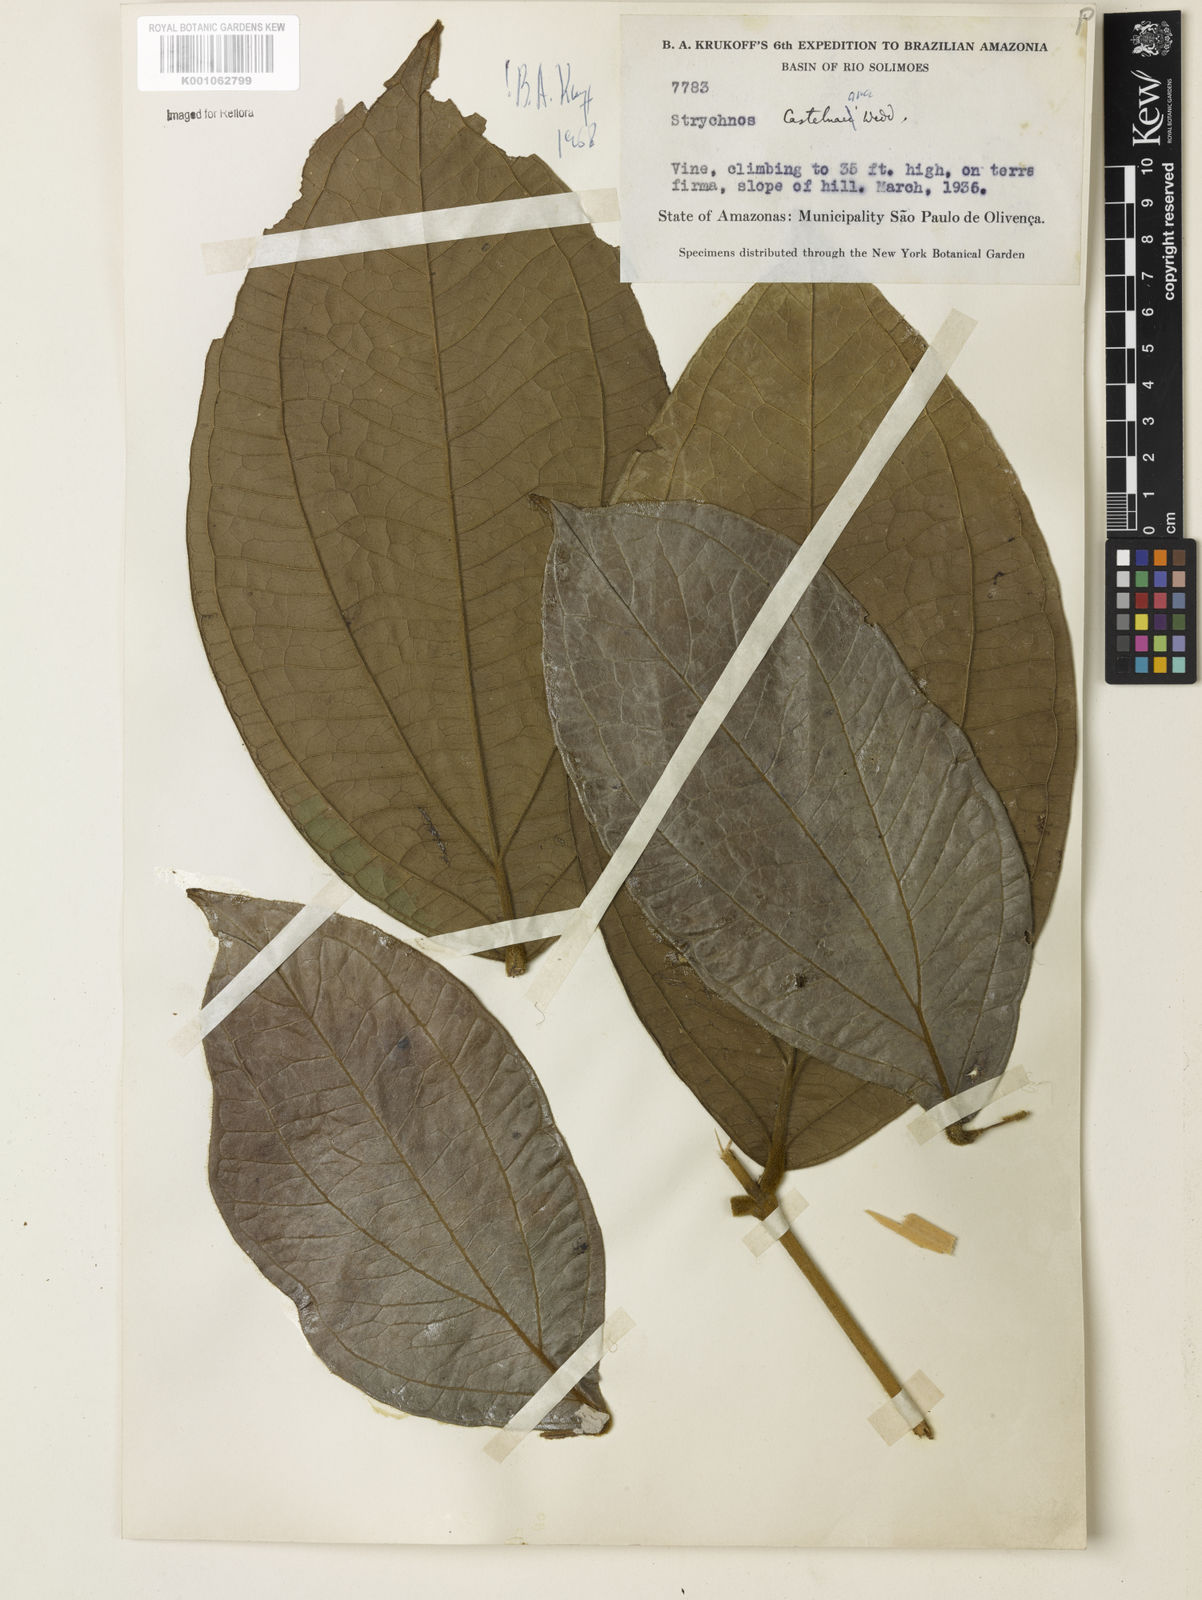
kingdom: Plantae
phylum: Tracheophyta
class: Magnoliopsida
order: Gentianales
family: Loganiaceae
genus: Strychnos
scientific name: Strychnos
